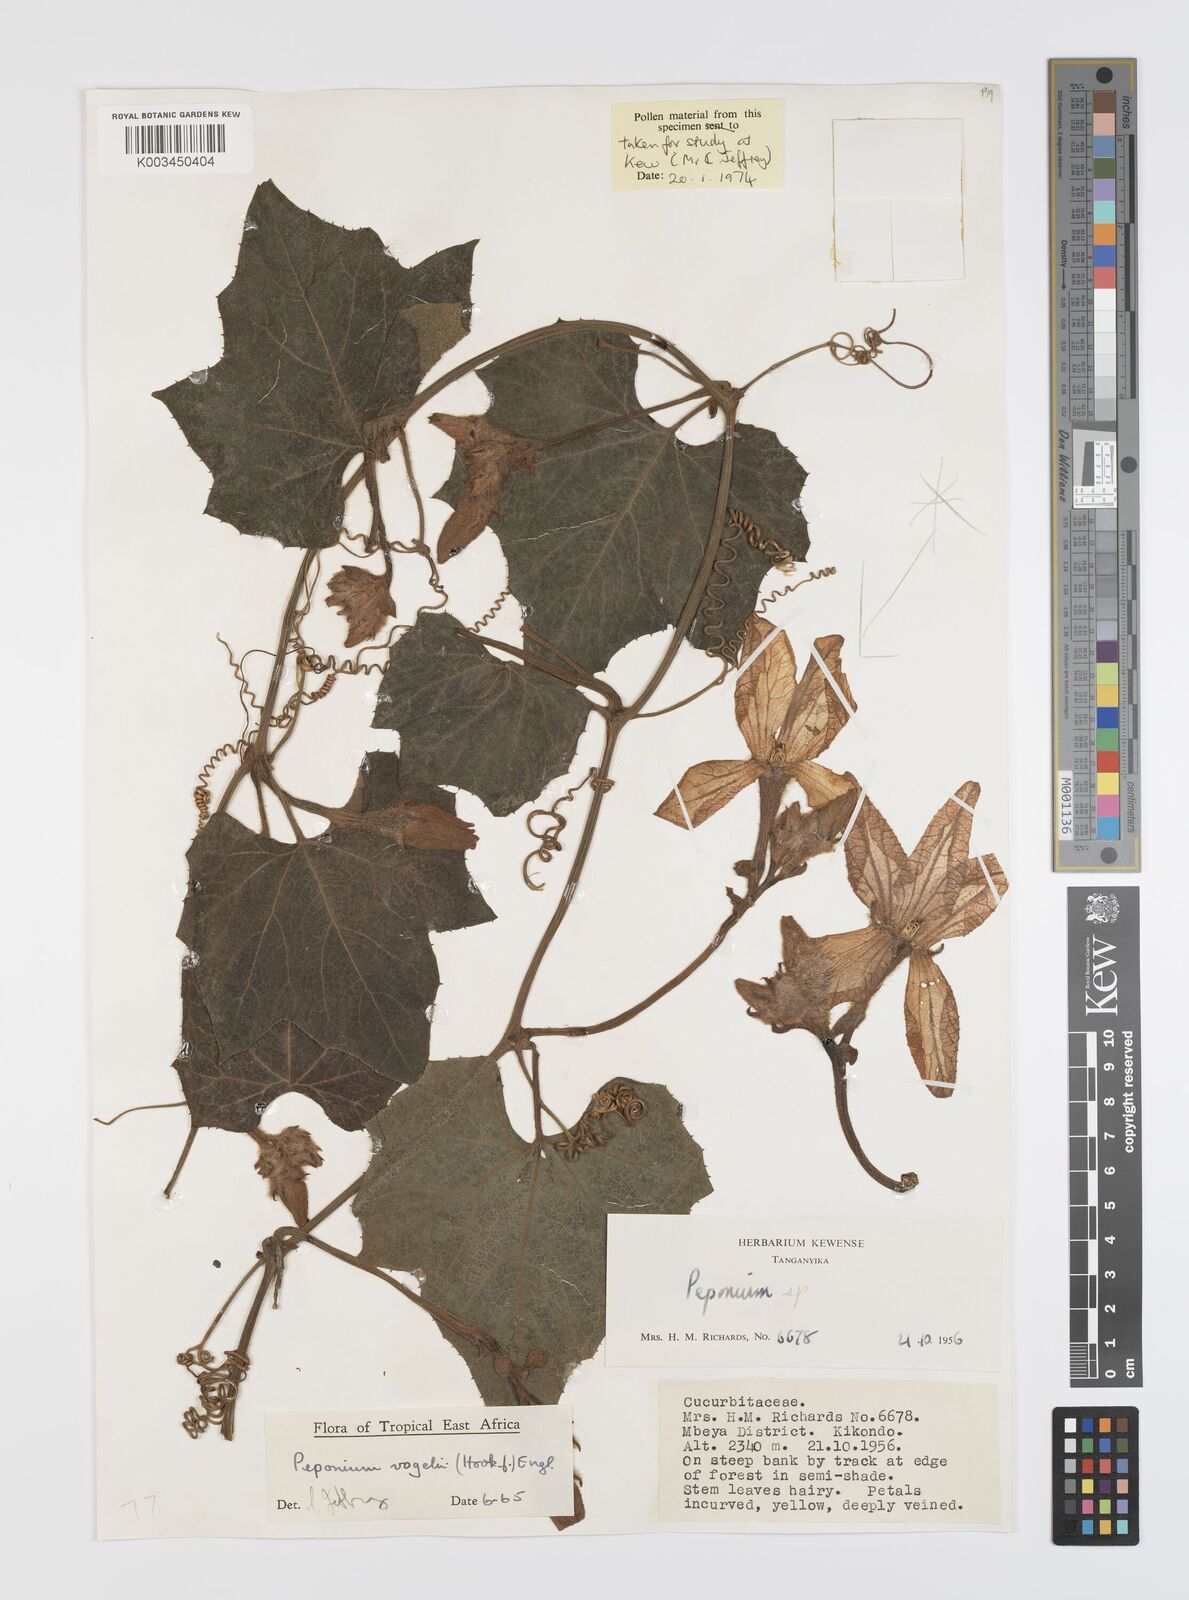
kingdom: Plantae
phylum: Tracheophyta
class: Magnoliopsida
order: Cucurbitales
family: Cucurbitaceae
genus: Peponium
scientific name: Peponium vogelii
